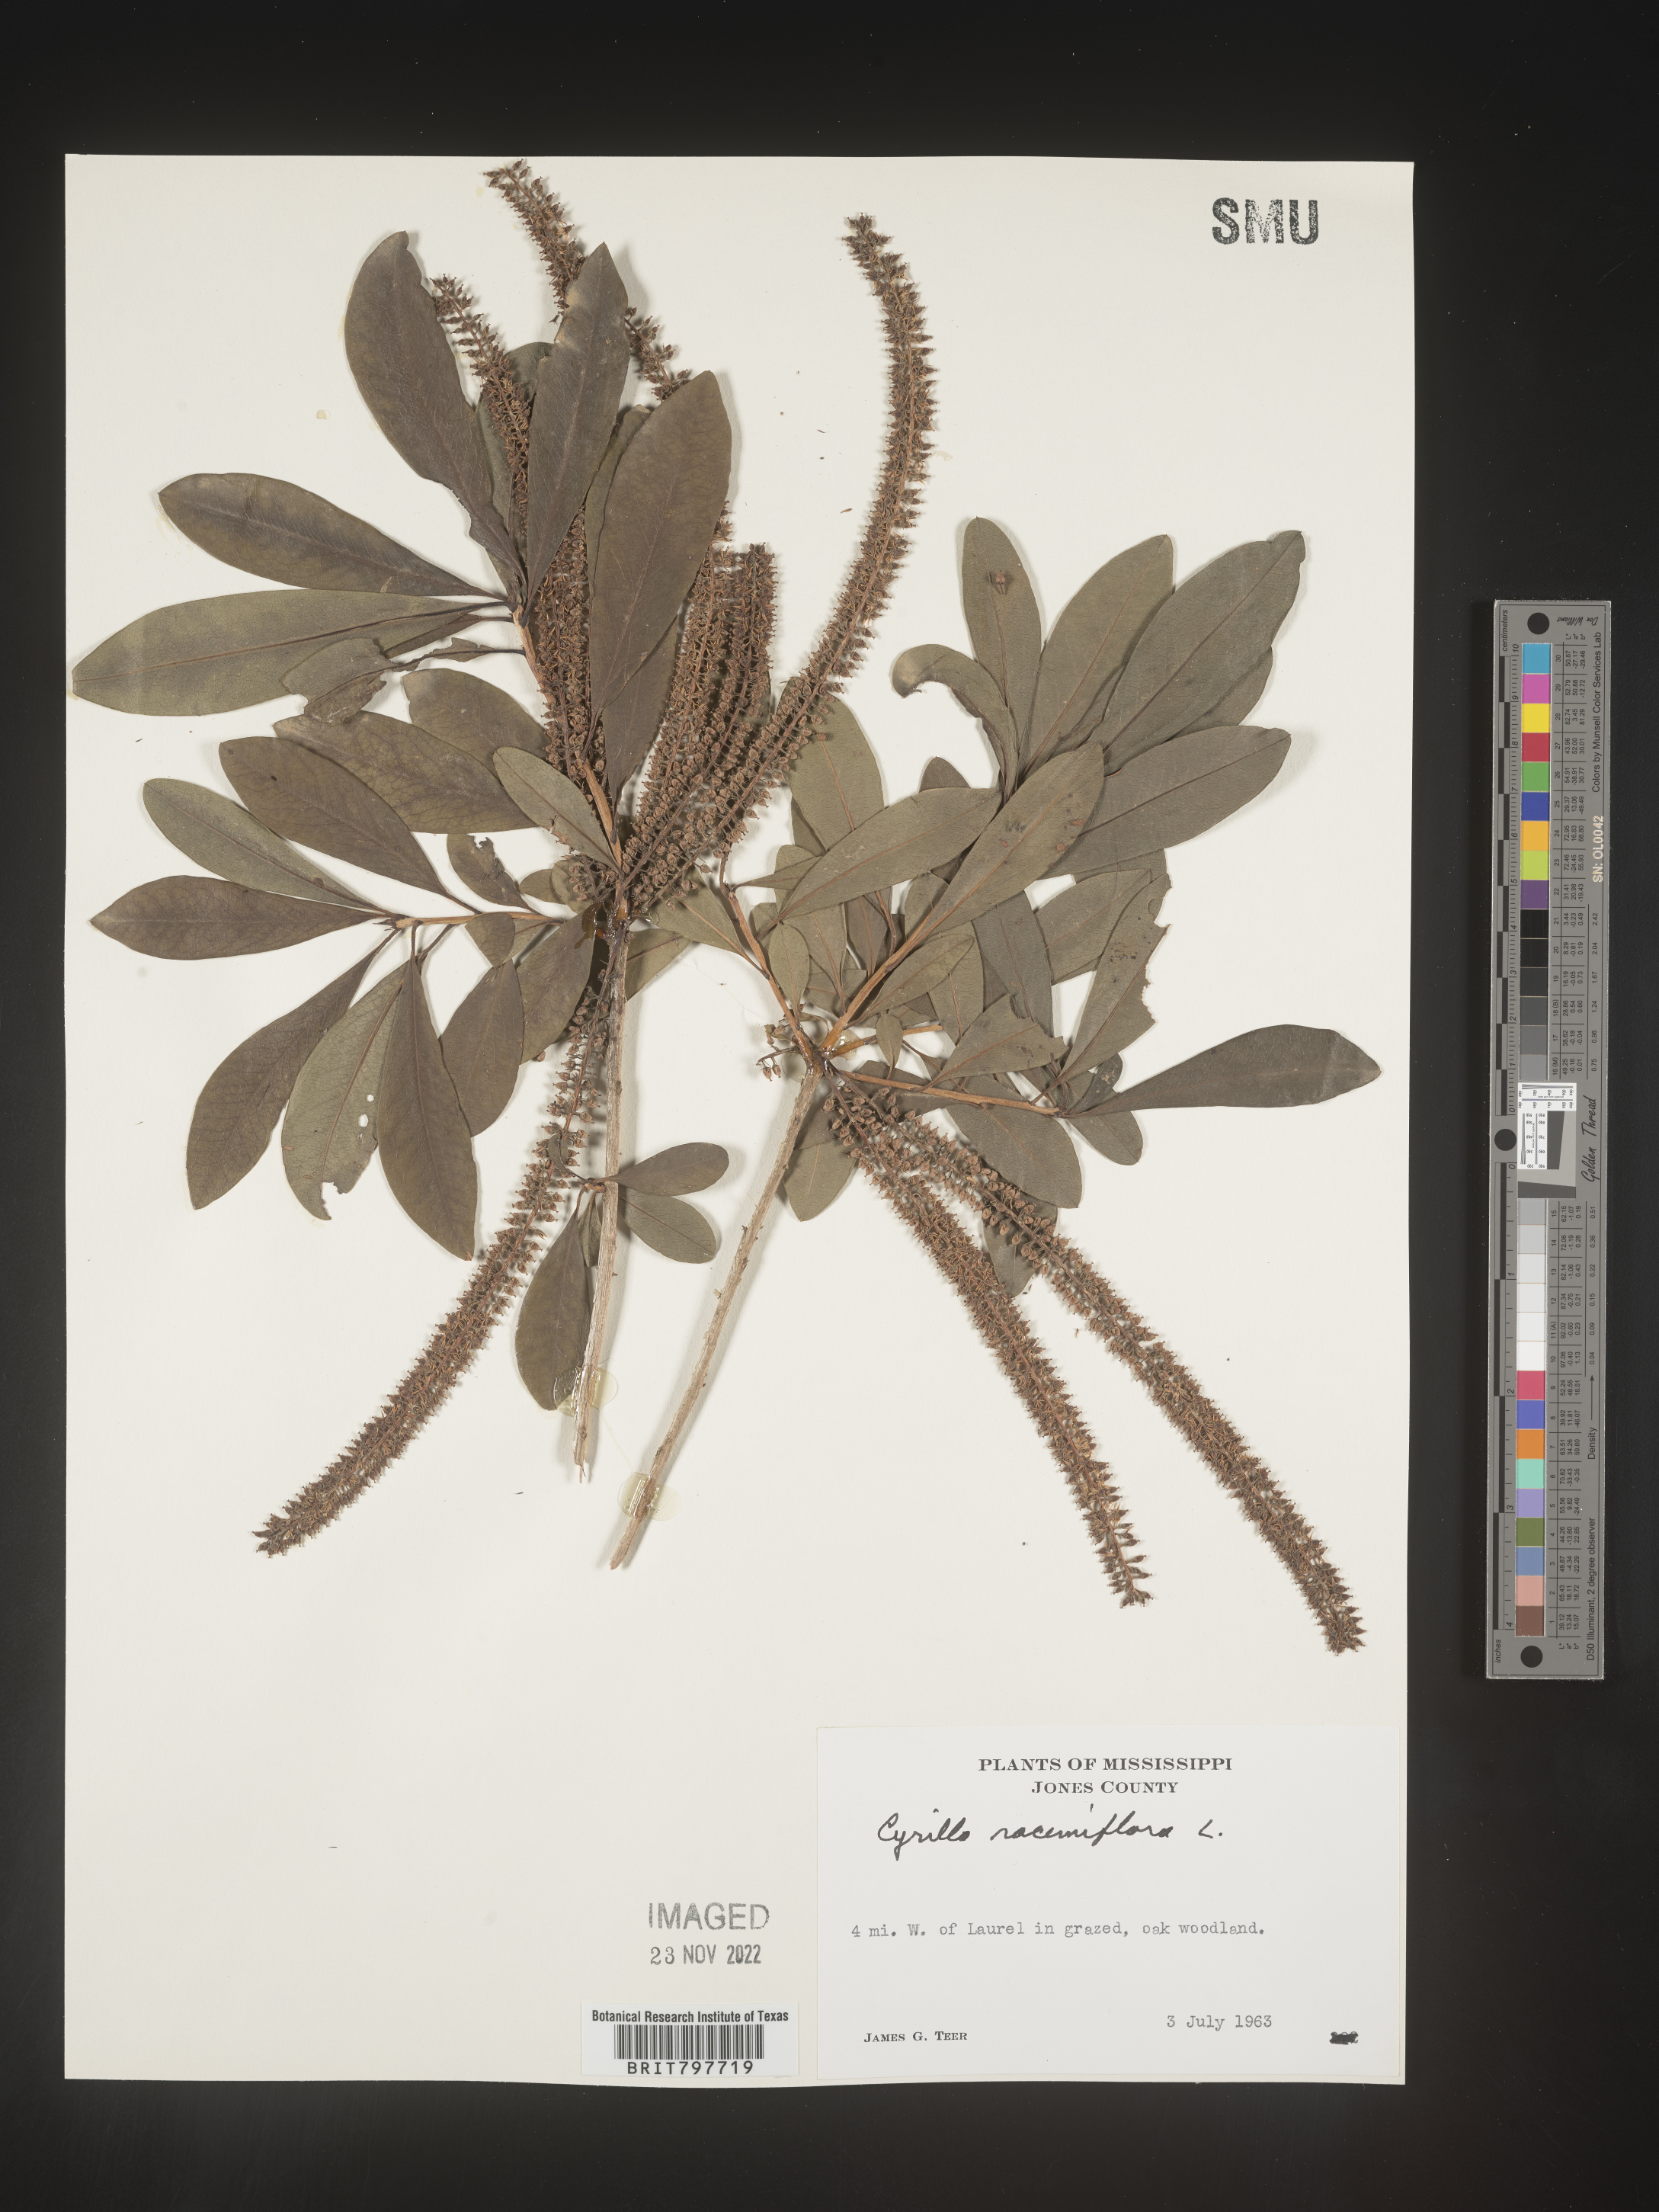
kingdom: Plantae
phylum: Tracheophyta
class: Magnoliopsida
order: Ericales
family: Cyrillaceae
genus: Cyrilla
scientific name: Cyrilla racemiflora
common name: Black titi
